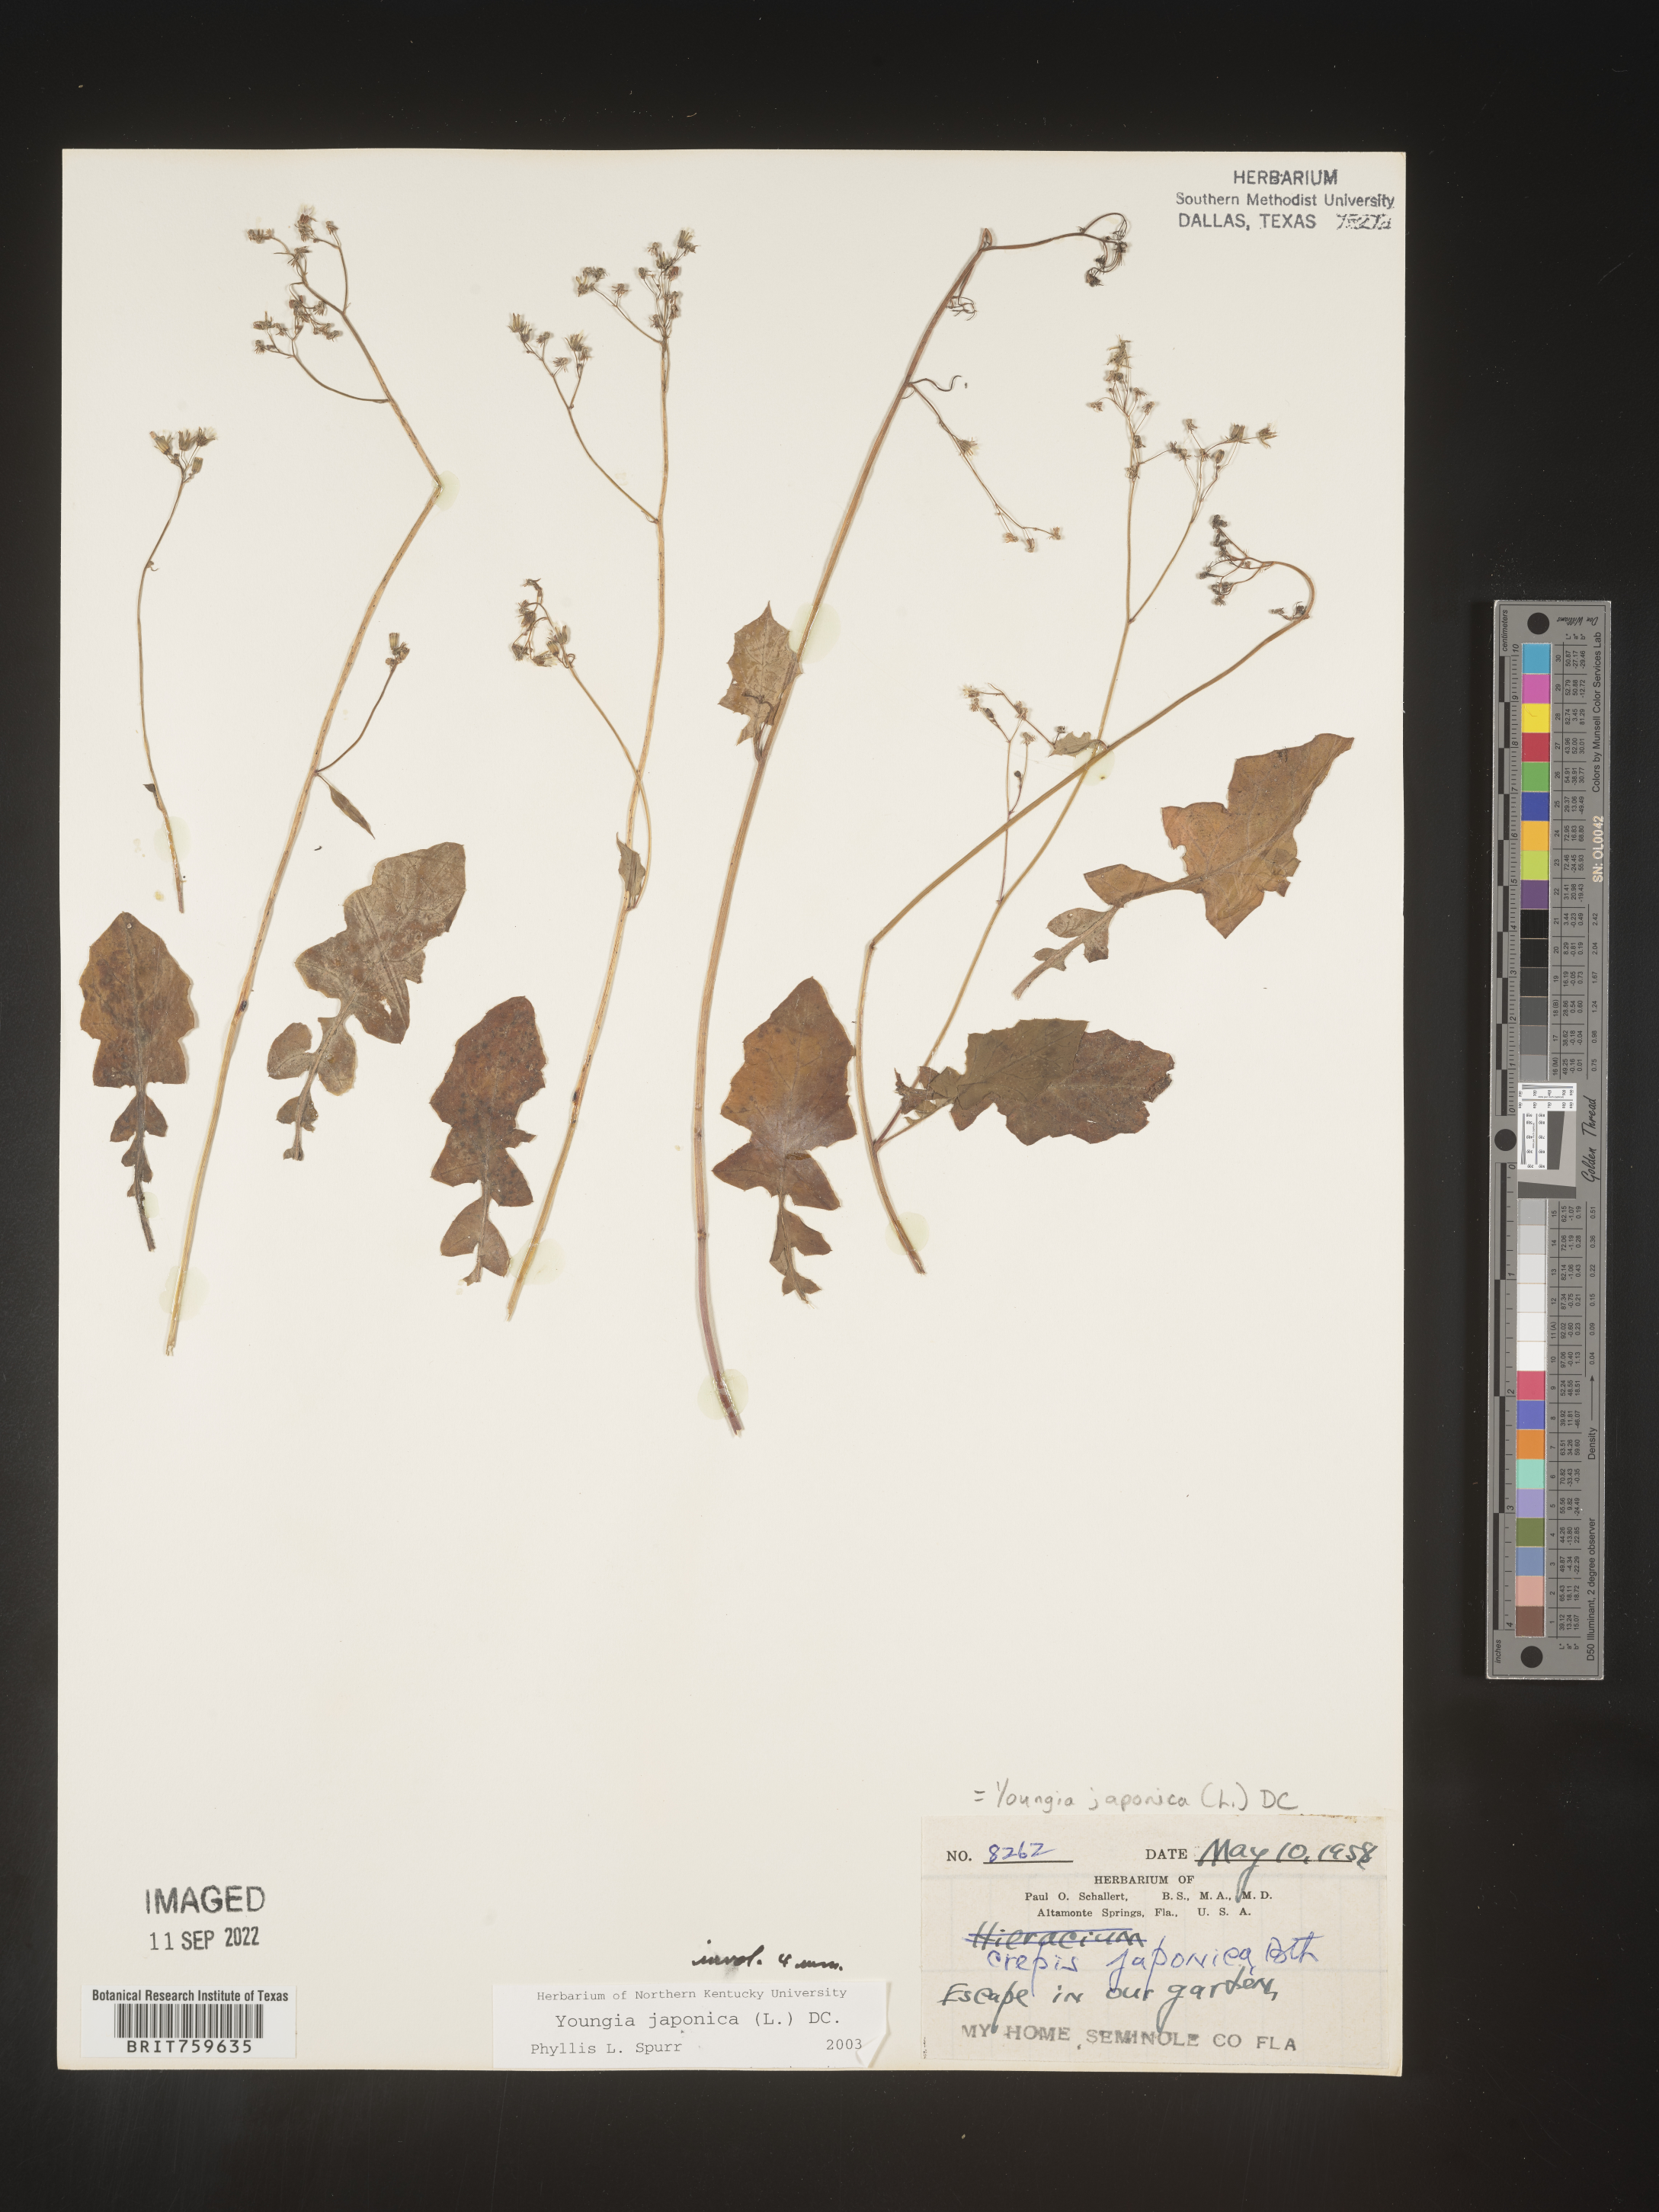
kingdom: Plantae
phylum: Tracheophyta
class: Magnoliopsida
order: Asterales
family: Asteraceae
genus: Youngia
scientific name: Youngia japonica
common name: Oriental false hawksbeard
